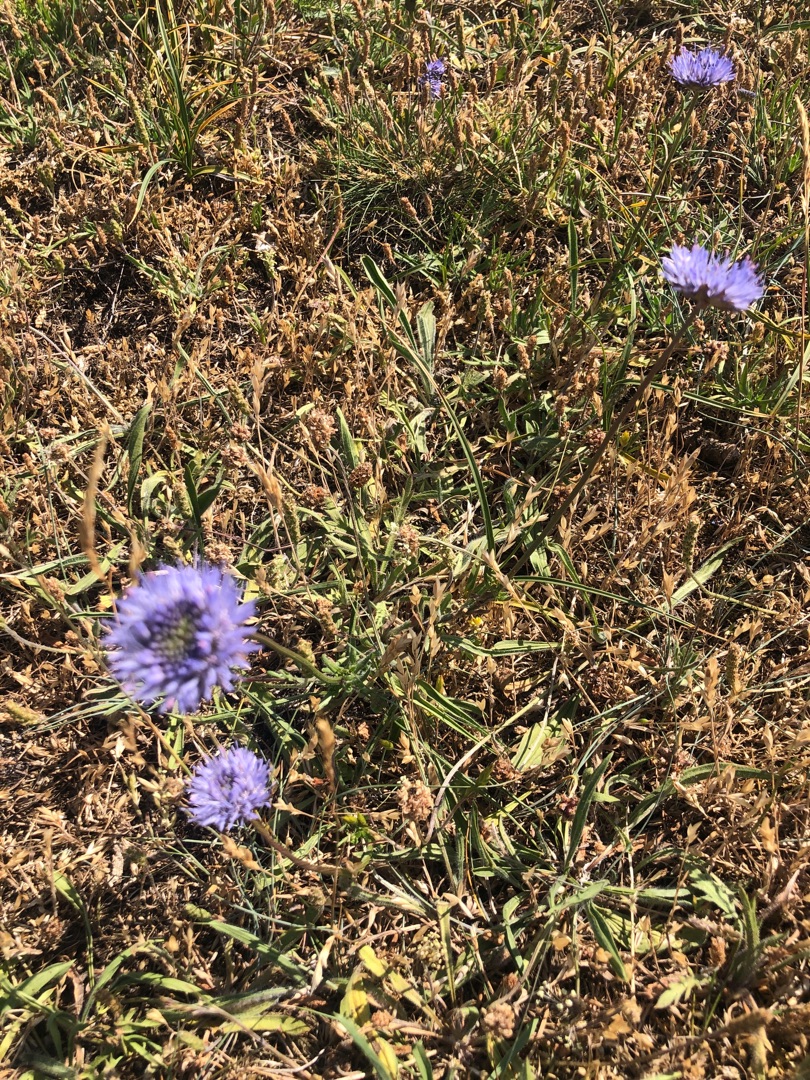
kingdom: Plantae
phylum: Tracheophyta
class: Magnoliopsida
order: Asterales
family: Campanulaceae
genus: Jasione
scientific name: Jasione montana
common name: Blåmunke
